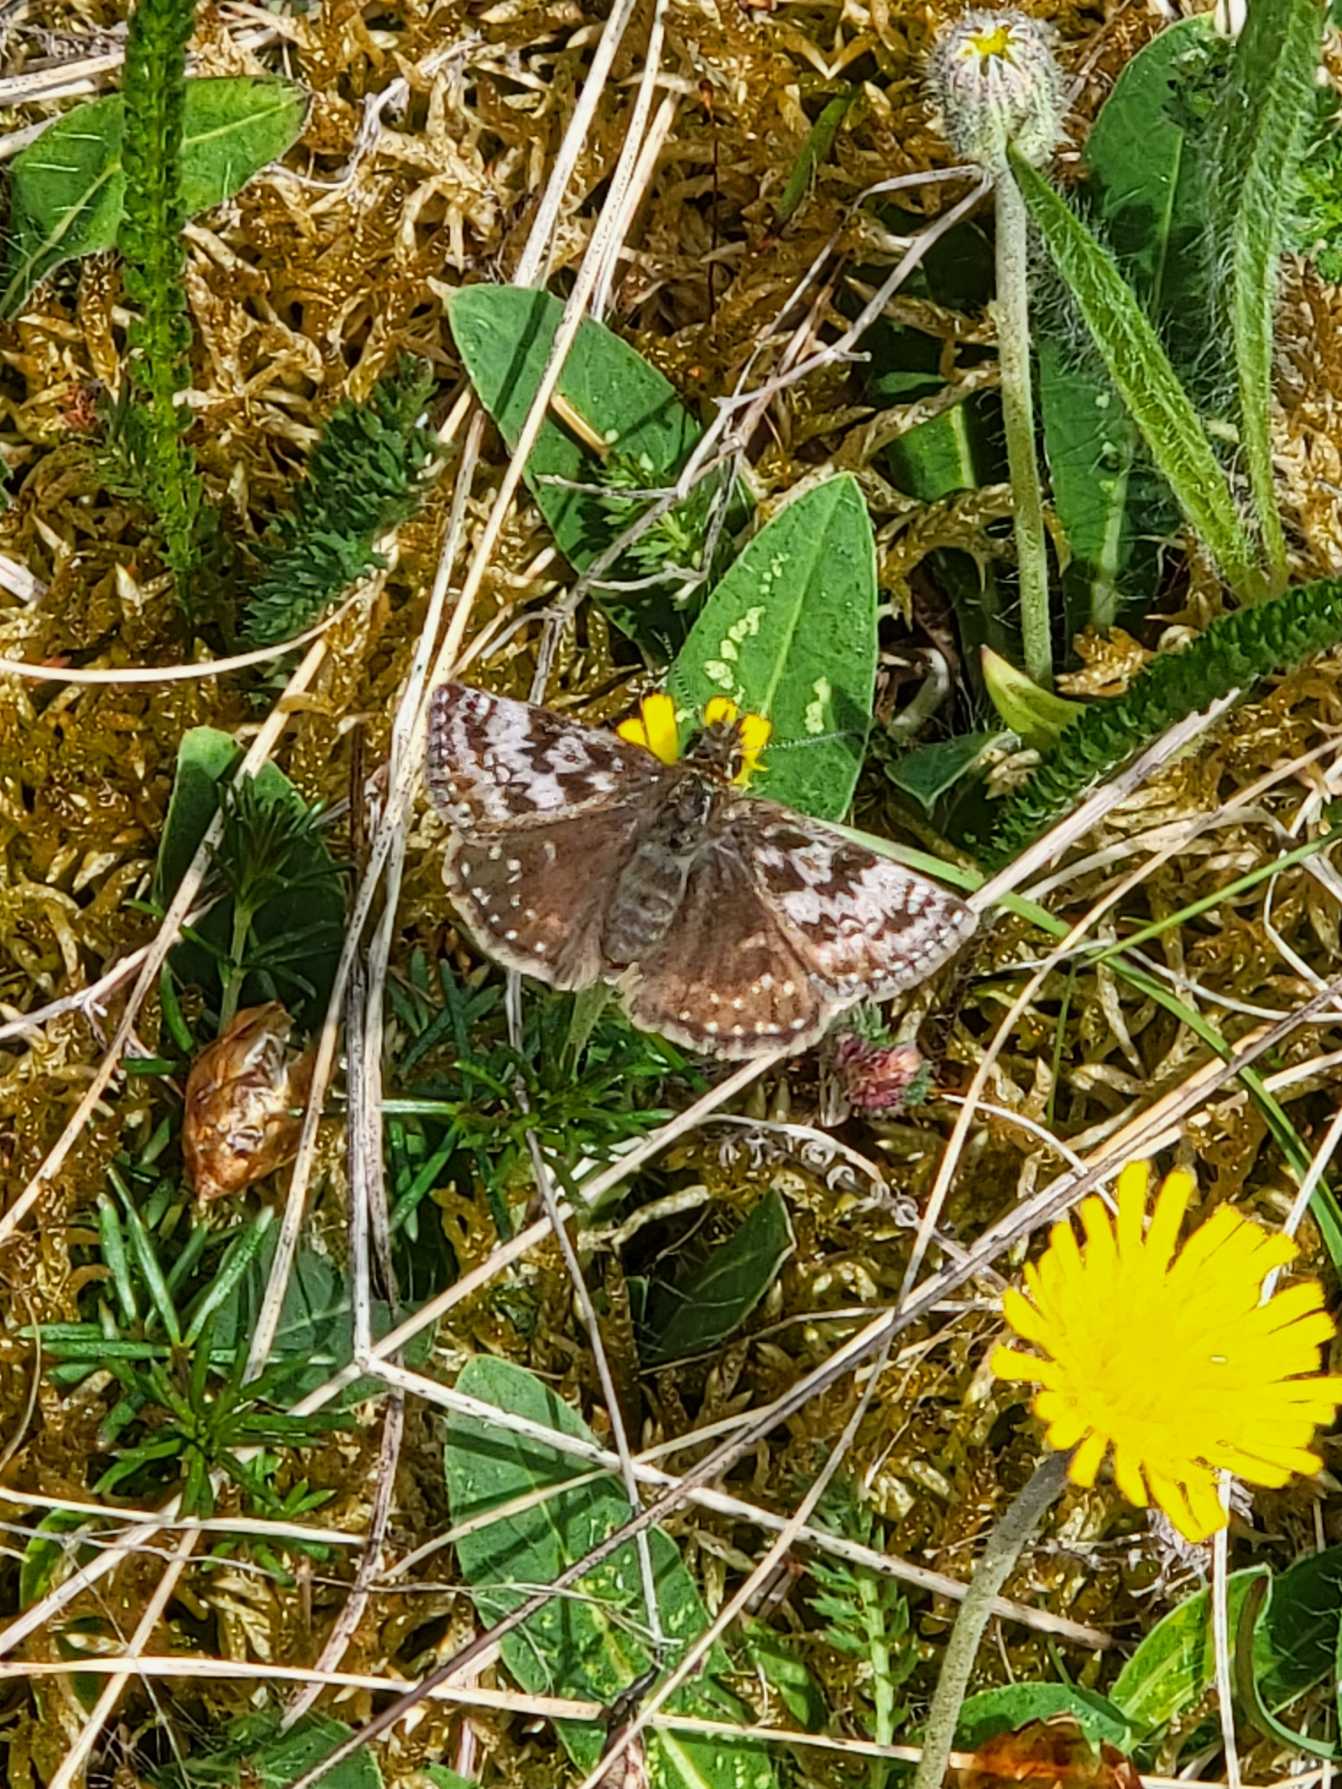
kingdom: Animalia
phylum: Arthropoda
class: Insecta
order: Lepidoptera
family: Hesperiidae
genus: Erynnis
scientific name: Erynnis tages
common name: Gråbåndet bredpande
